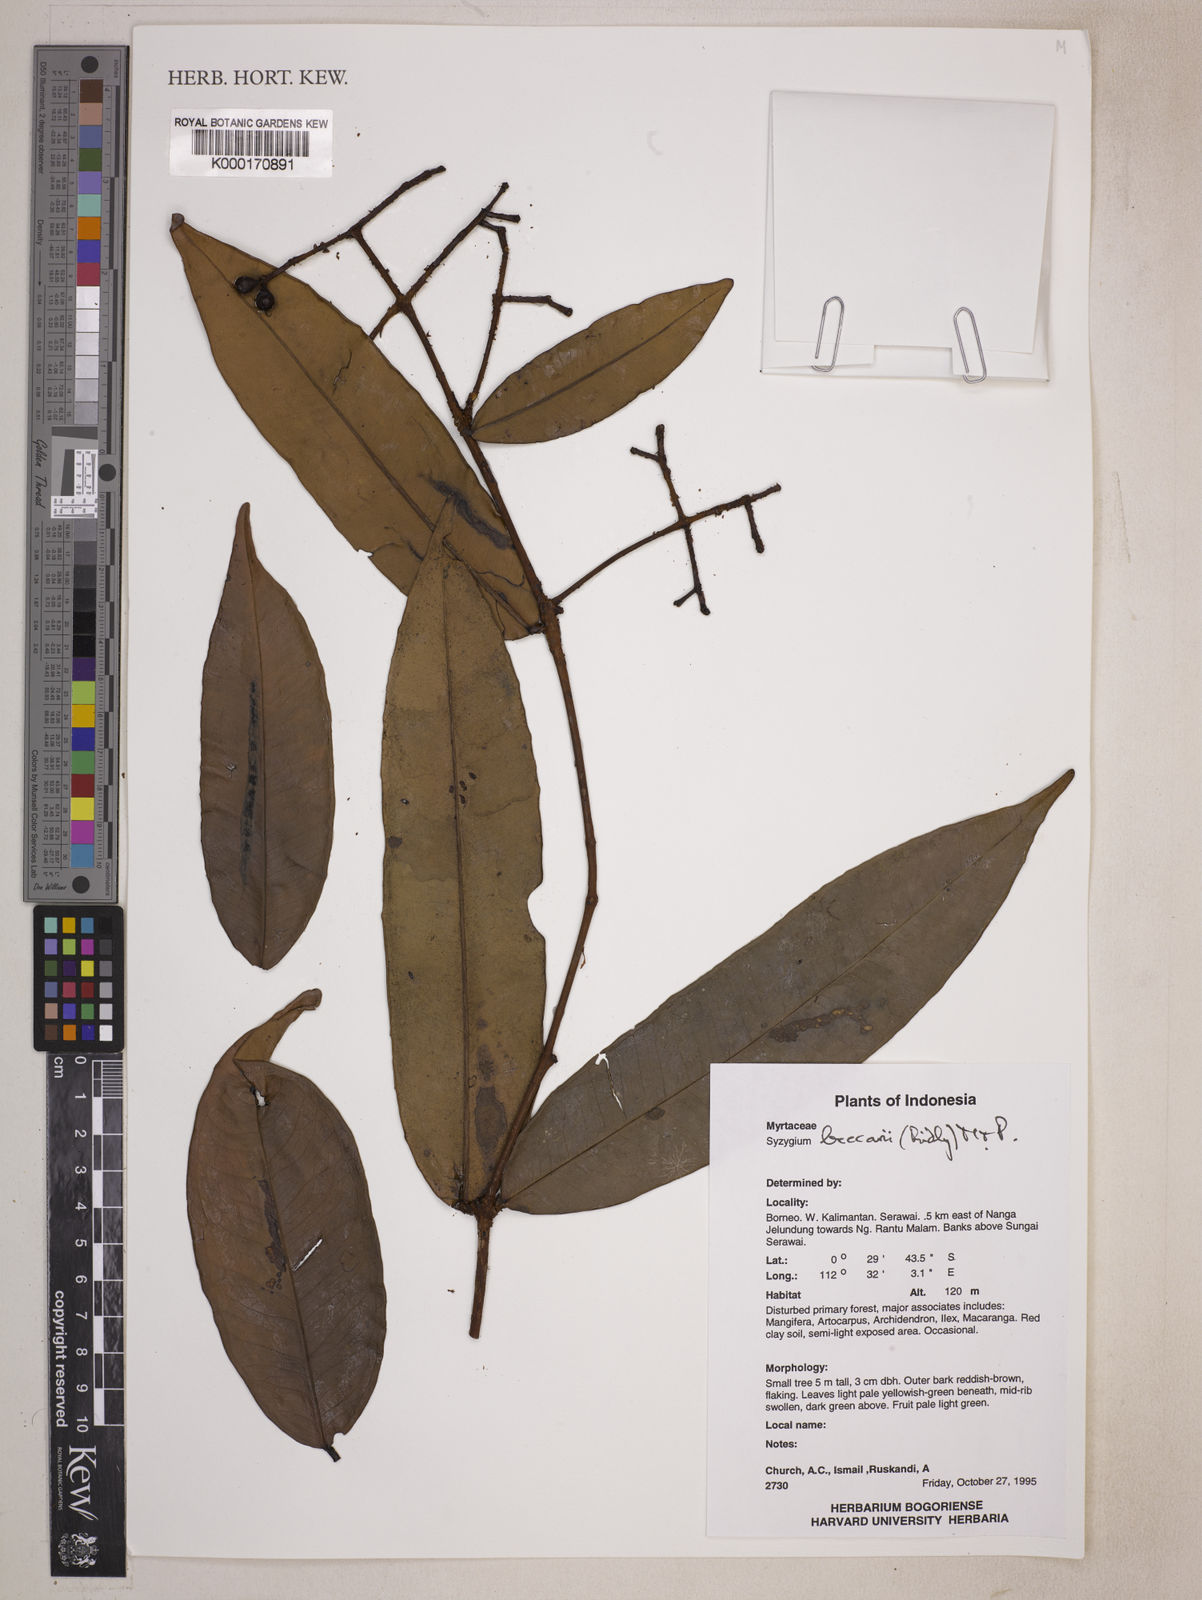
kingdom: Plantae
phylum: Tracheophyta
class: Magnoliopsida
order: Myrtales
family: Myrtaceae
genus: Syzygium
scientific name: Syzygium beccarii
